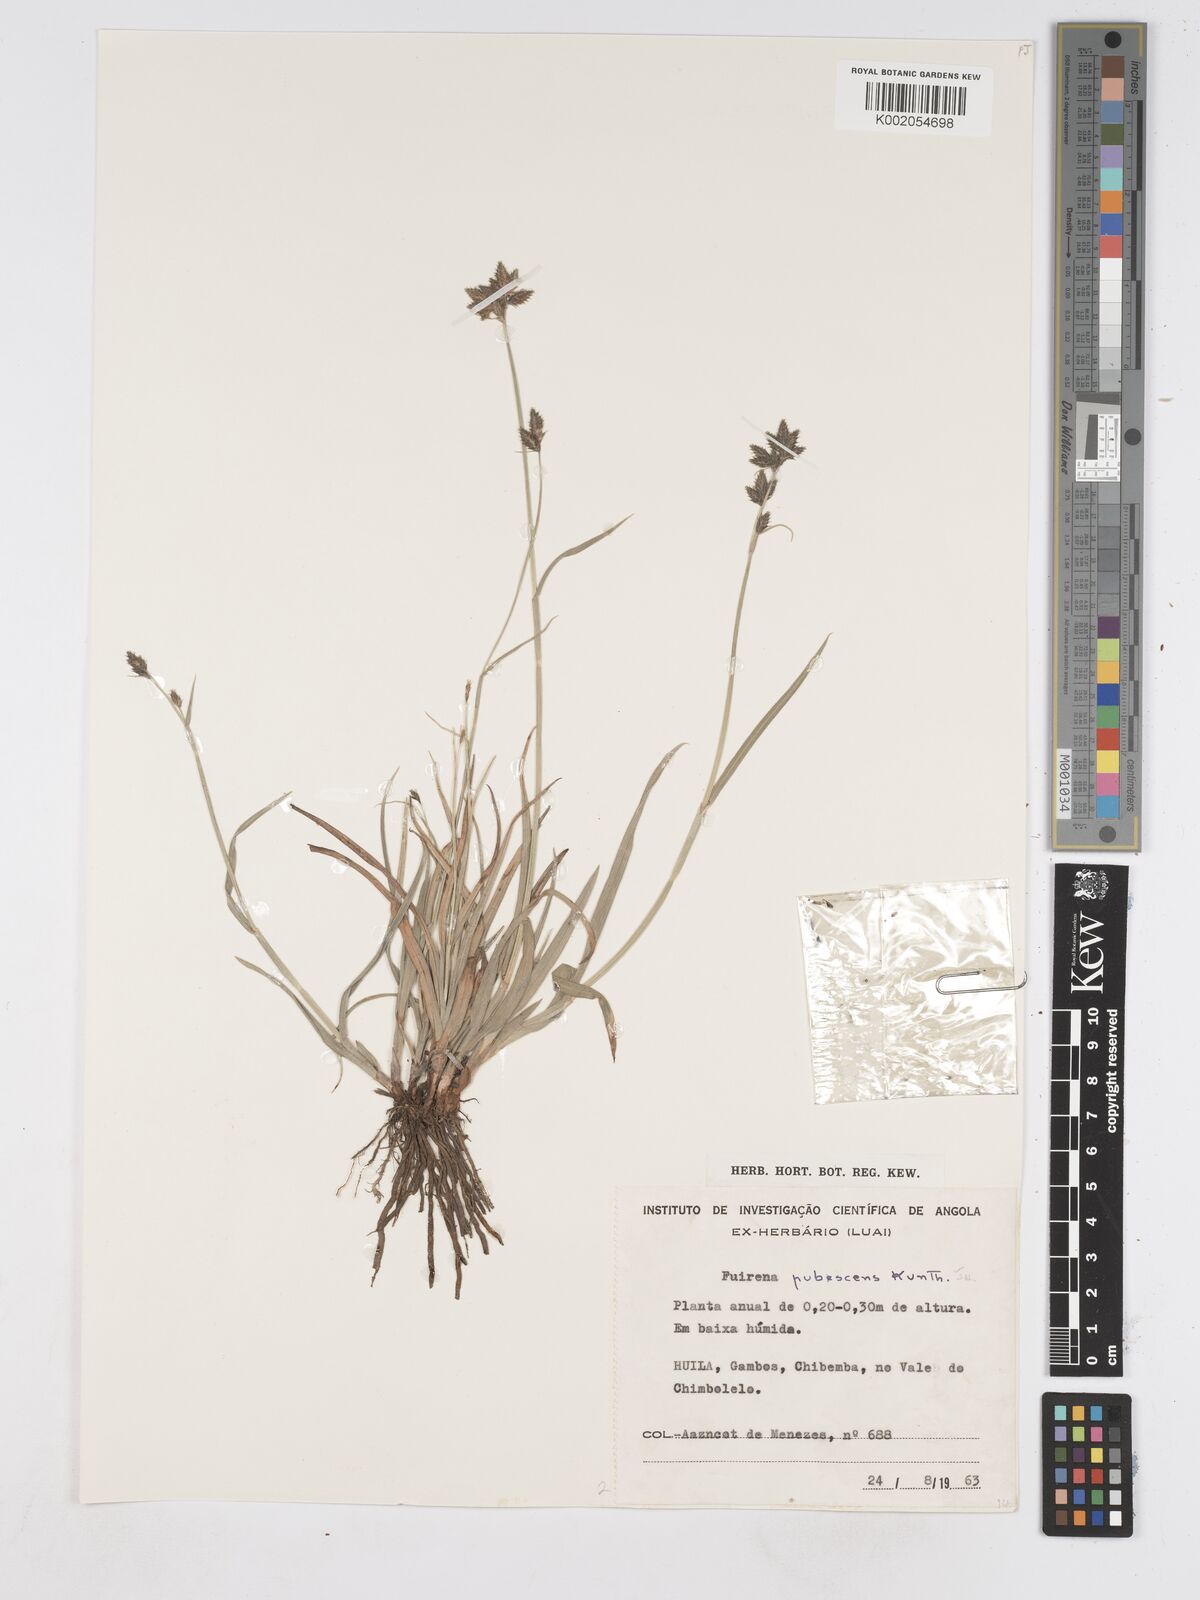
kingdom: Plantae
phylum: Tracheophyta
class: Liliopsida
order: Poales
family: Cyperaceae
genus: Fuirena
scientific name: Fuirena pachyrrhiza
